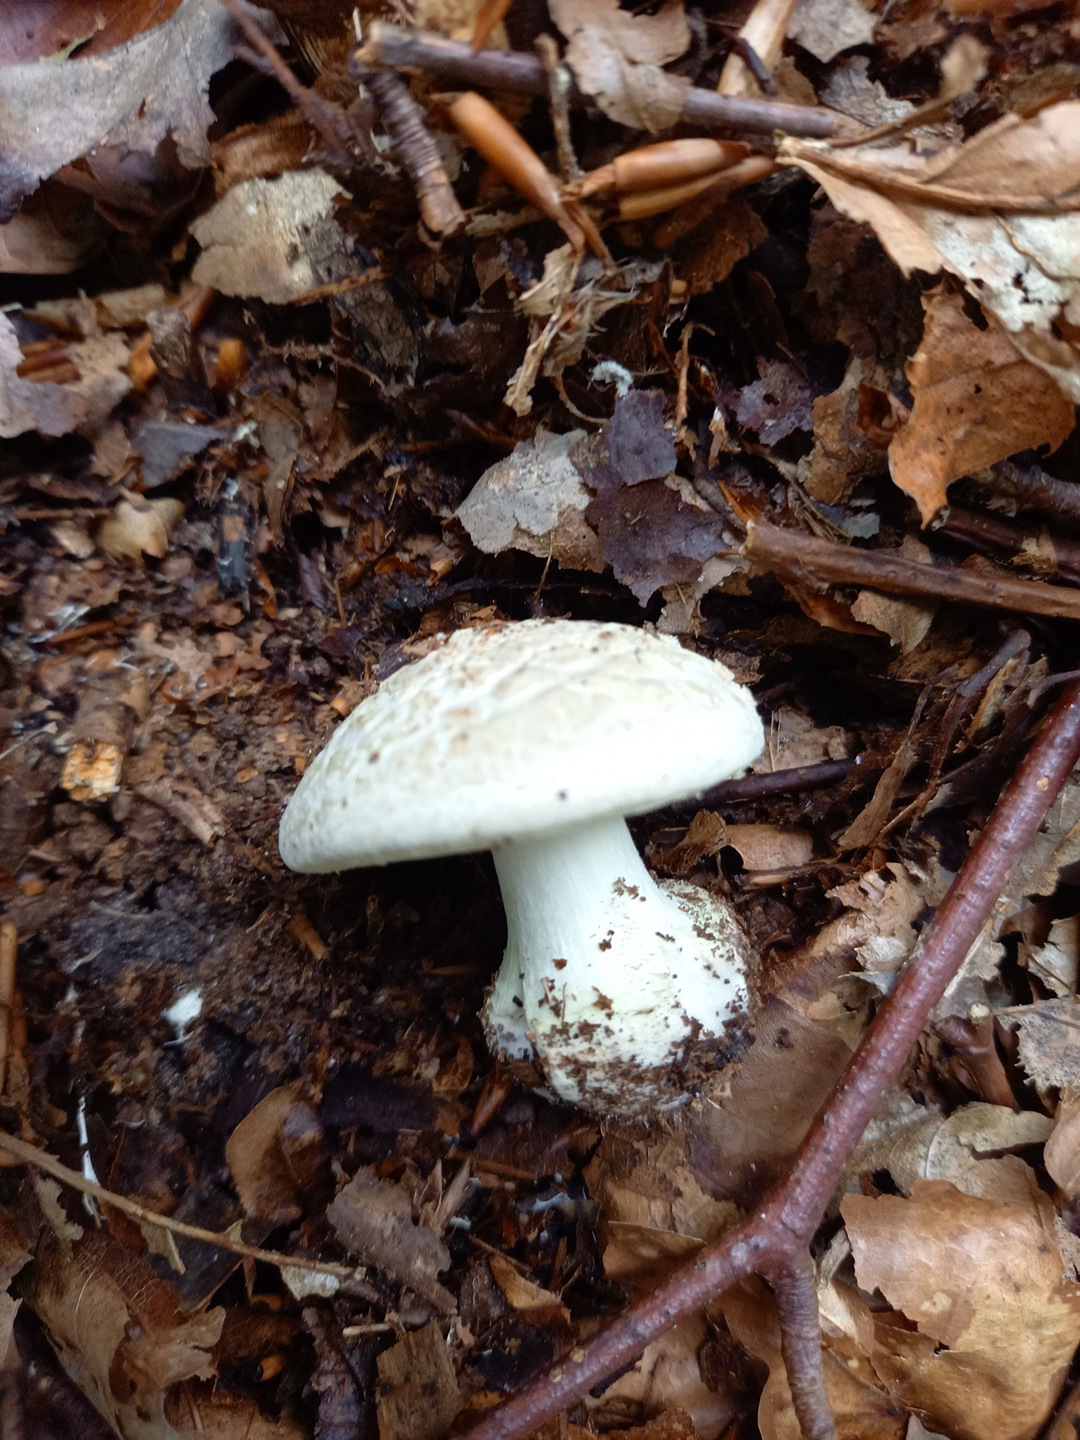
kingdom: Fungi
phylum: Basidiomycota
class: Agaricomycetes
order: Agaricales
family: Amanitaceae
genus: Amanita
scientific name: Amanita citrina
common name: kugleknoldet fluesvamp
